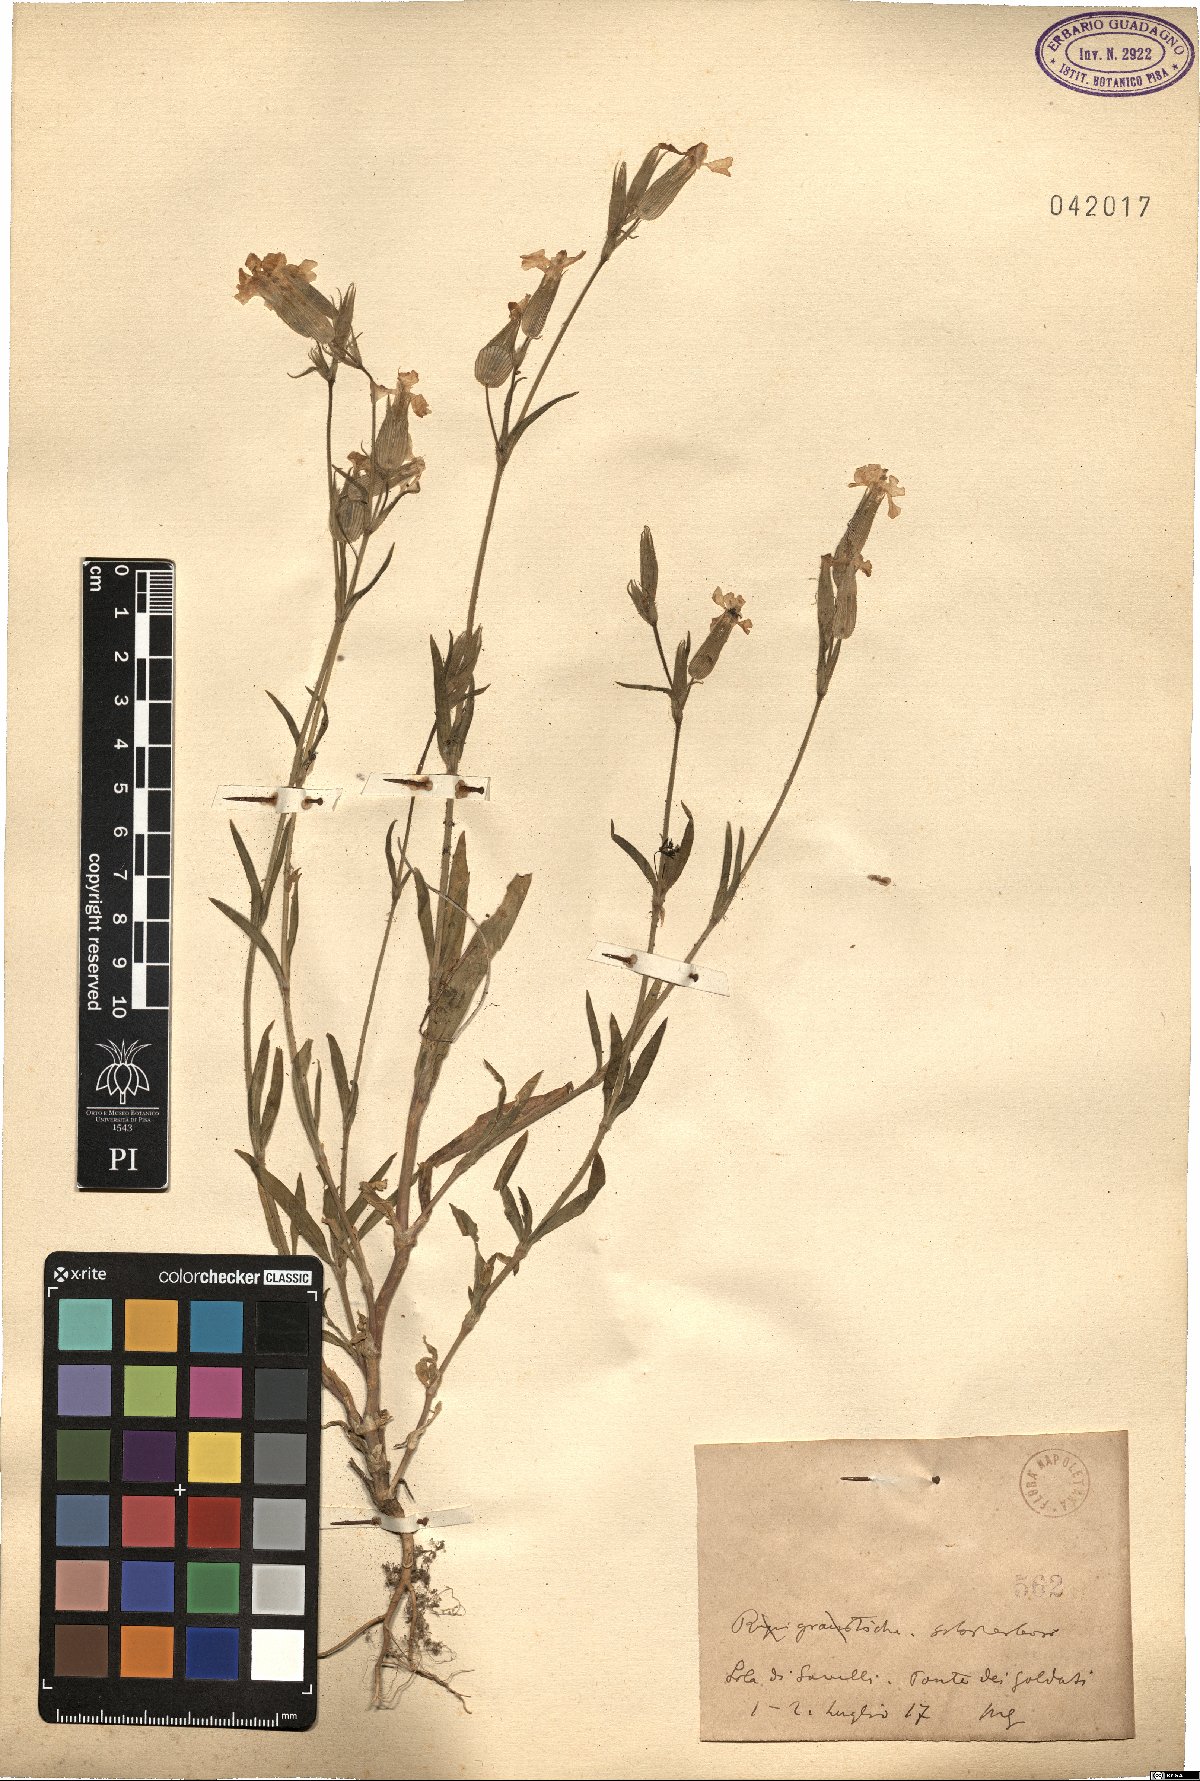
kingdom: Plantae
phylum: Tracheophyta
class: Magnoliopsida
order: Caryophyllales
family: Caryophyllaceae
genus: Silene
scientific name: Silene
